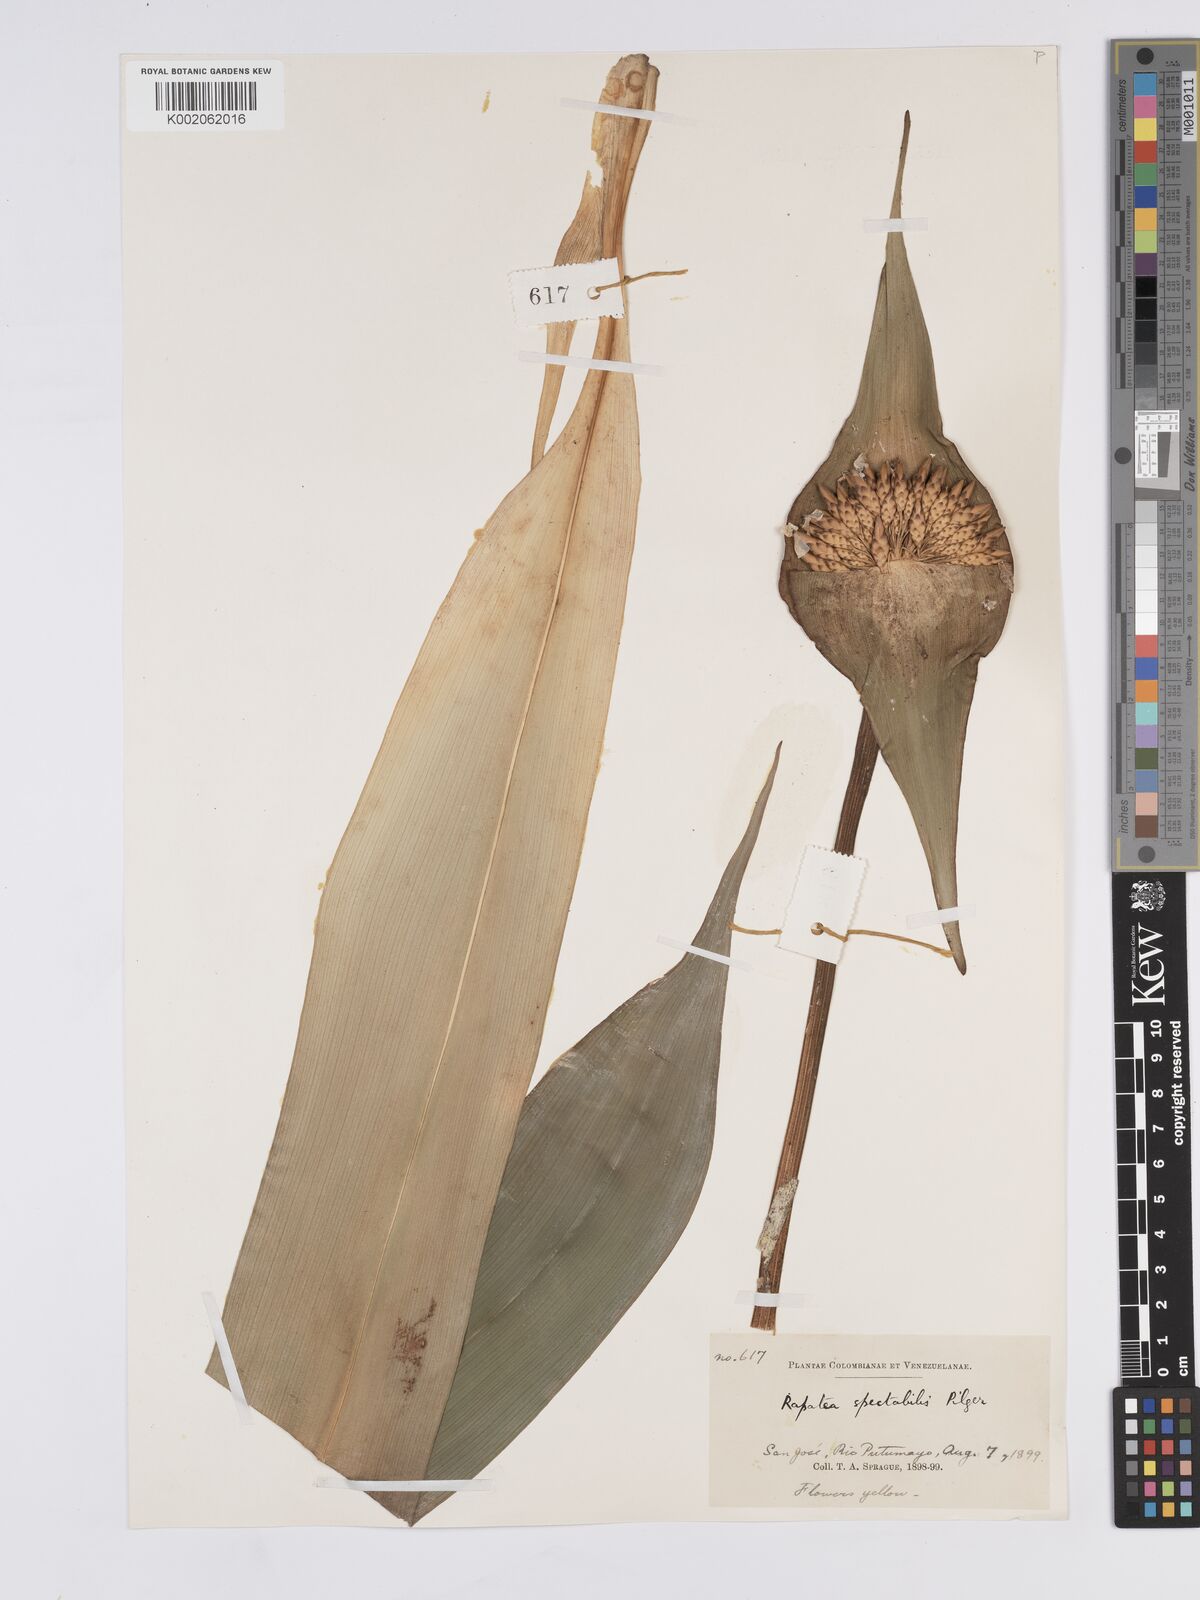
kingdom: Plantae
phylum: Tracheophyta
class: Liliopsida
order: Poales
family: Rapateaceae
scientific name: Rapateaceae
